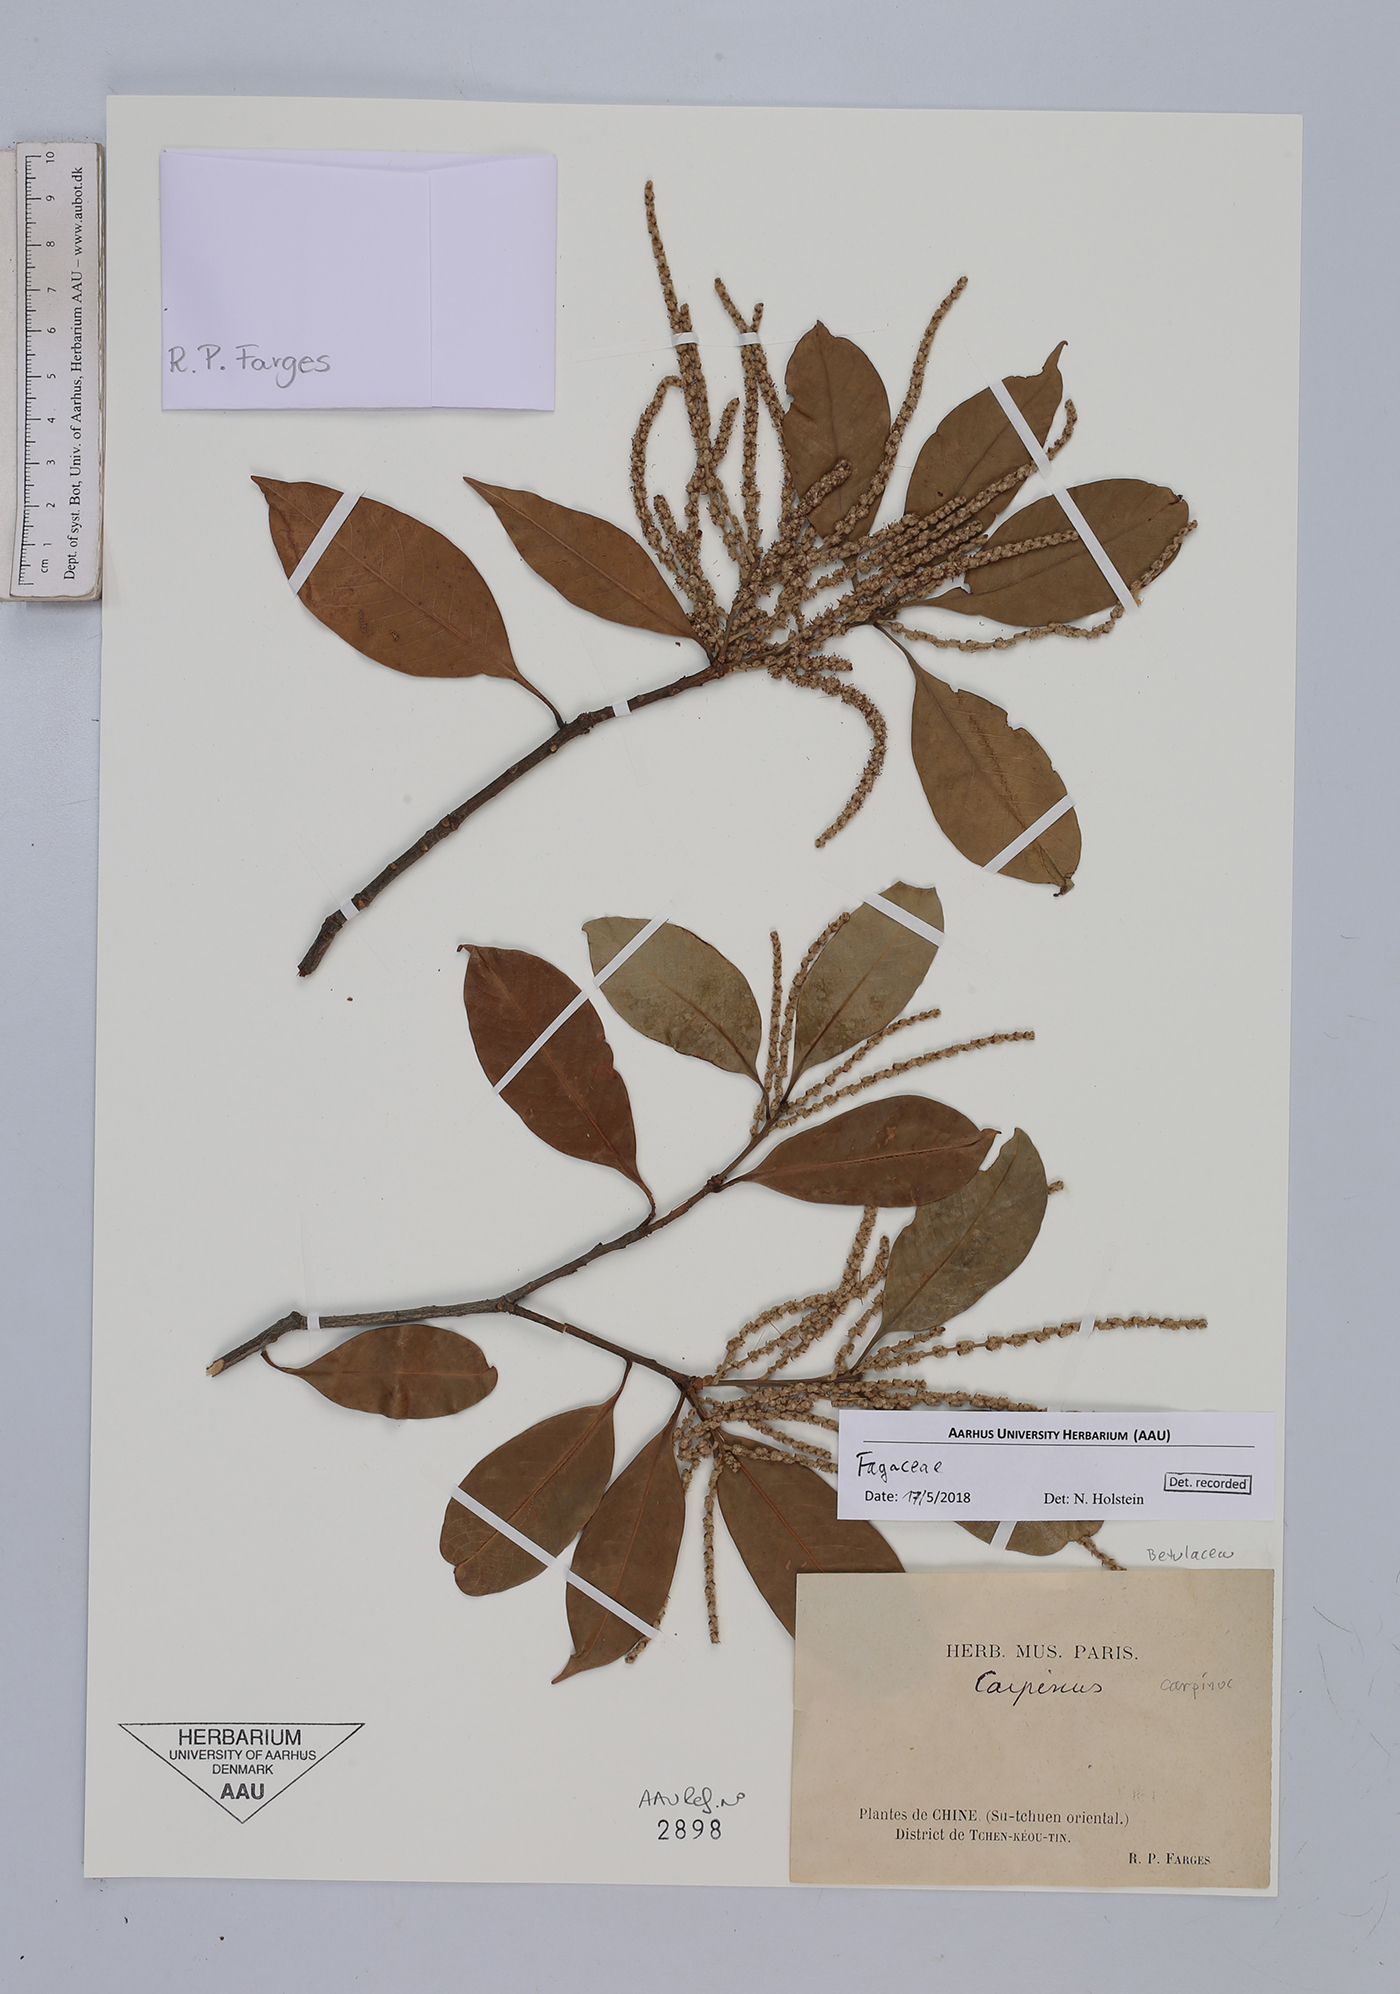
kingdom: Plantae
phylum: Tracheophyta
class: Magnoliopsida
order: Fagales
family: Fagaceae
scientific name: Fagaceae
